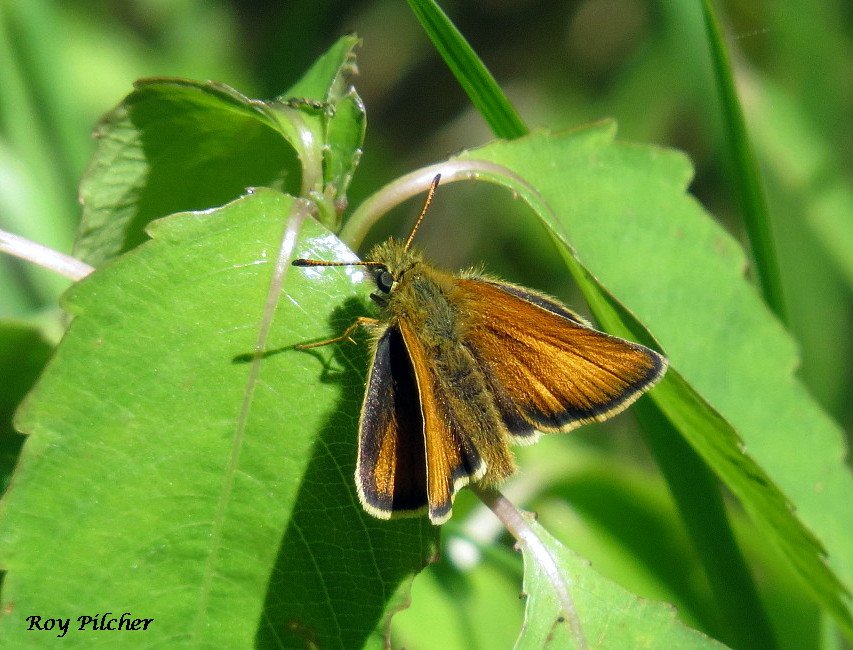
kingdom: Animalia
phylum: Arthropoda
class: Insecta
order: Lepidoptera
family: Hesperiidae
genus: Thymelicus
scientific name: Thymelicus lineola
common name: European Skipper
